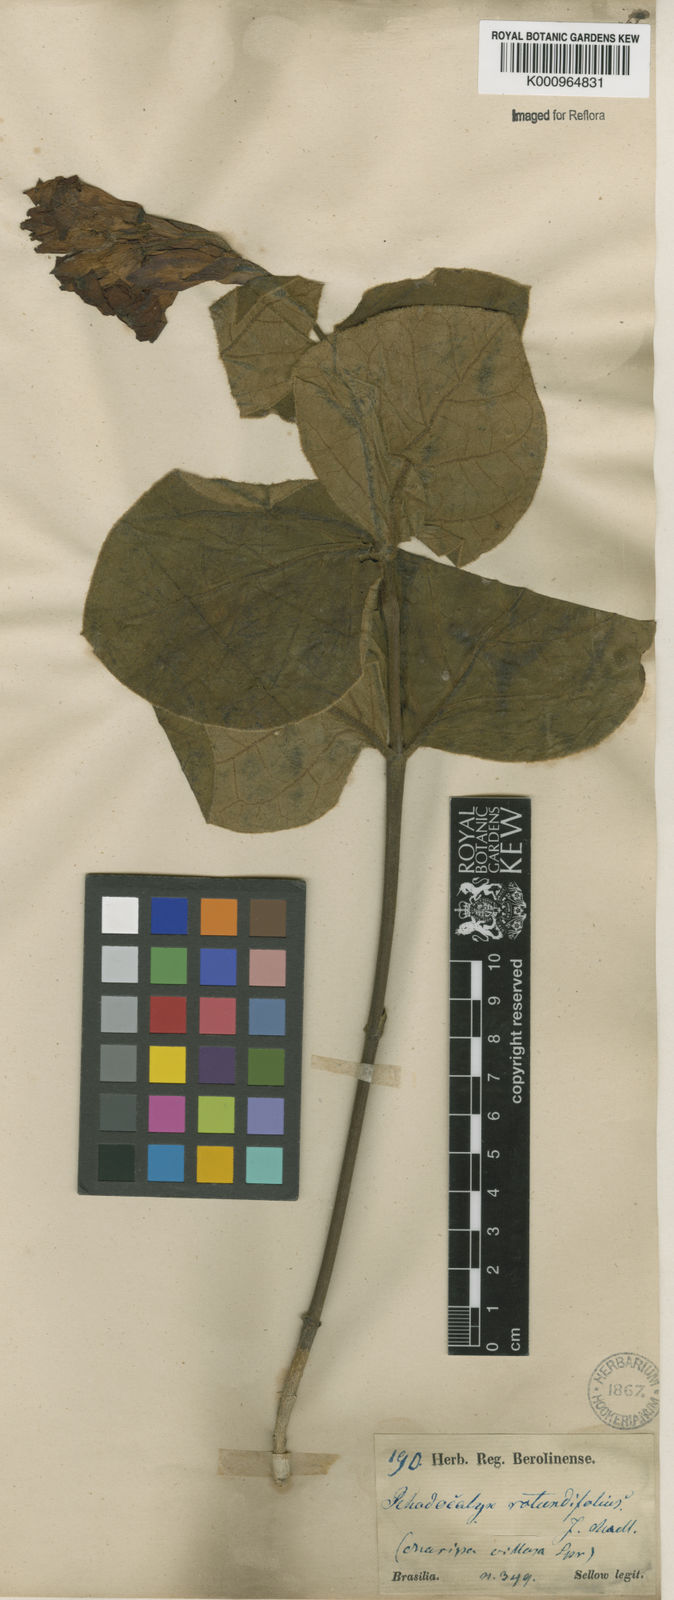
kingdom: Plantae
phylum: Tracheophyta
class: Magnoliopsida
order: Gentianales
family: Apocynaceae
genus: Rhodocalyx
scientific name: Rhodocalyx
